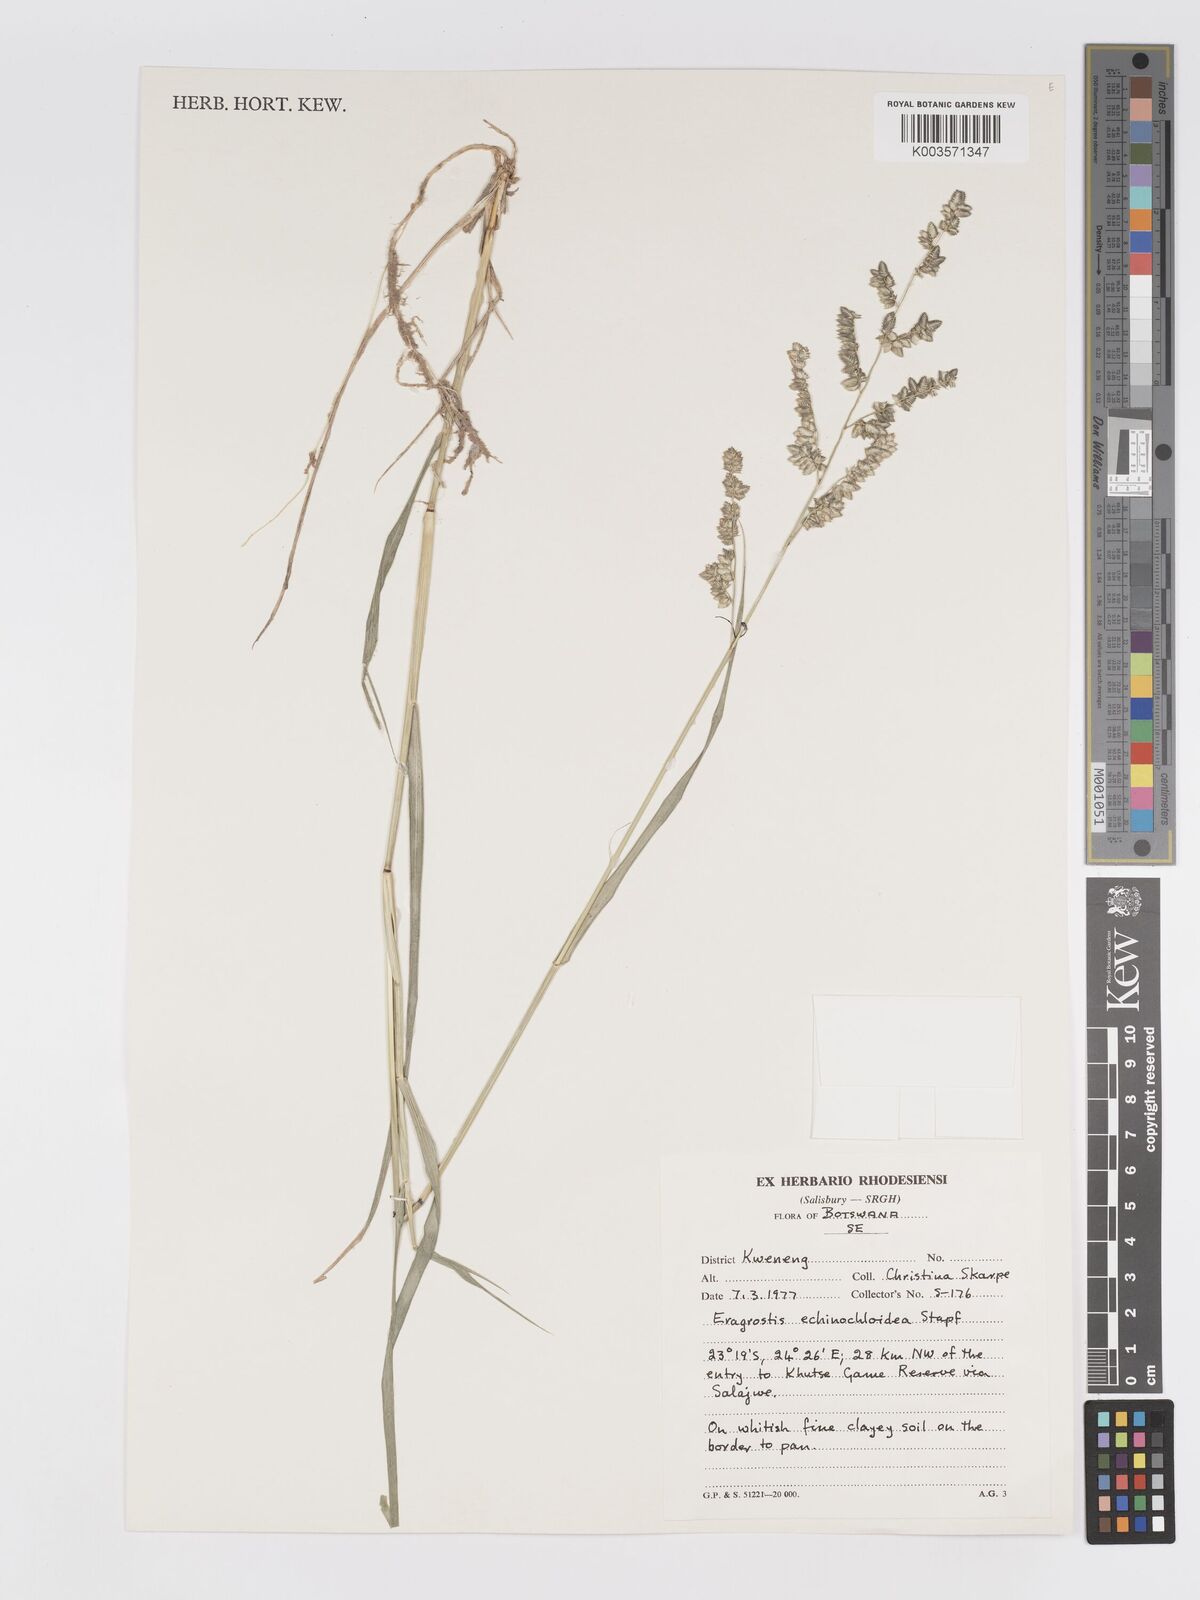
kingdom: Plantae
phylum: Tracheophyta
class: Liliopsida
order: Poales
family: Poaceae
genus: Eragrostis
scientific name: Eragrostis echinochloidea
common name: African lovegrass
